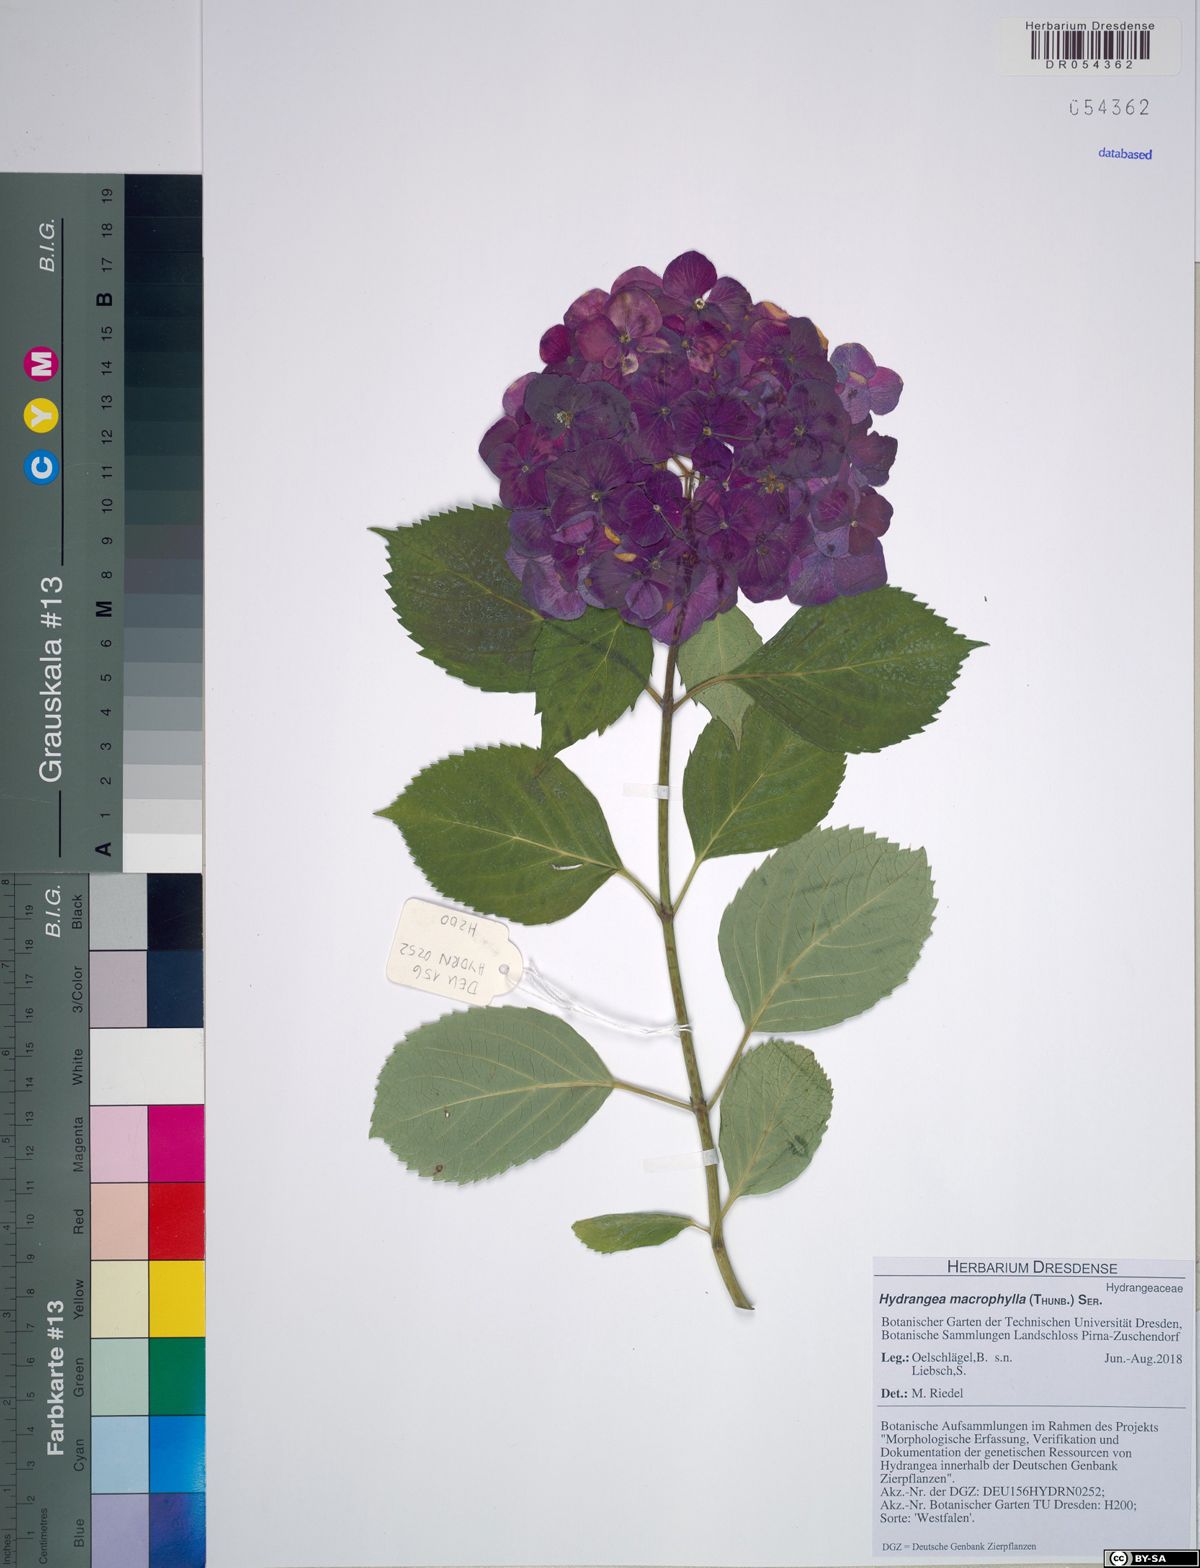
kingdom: Plantae
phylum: Tracheophyta
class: Magnoliopsida
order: Cornales
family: Hydrangeaceae
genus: Hydrangea
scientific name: Hydrangea macrophylla
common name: Hydrangea
